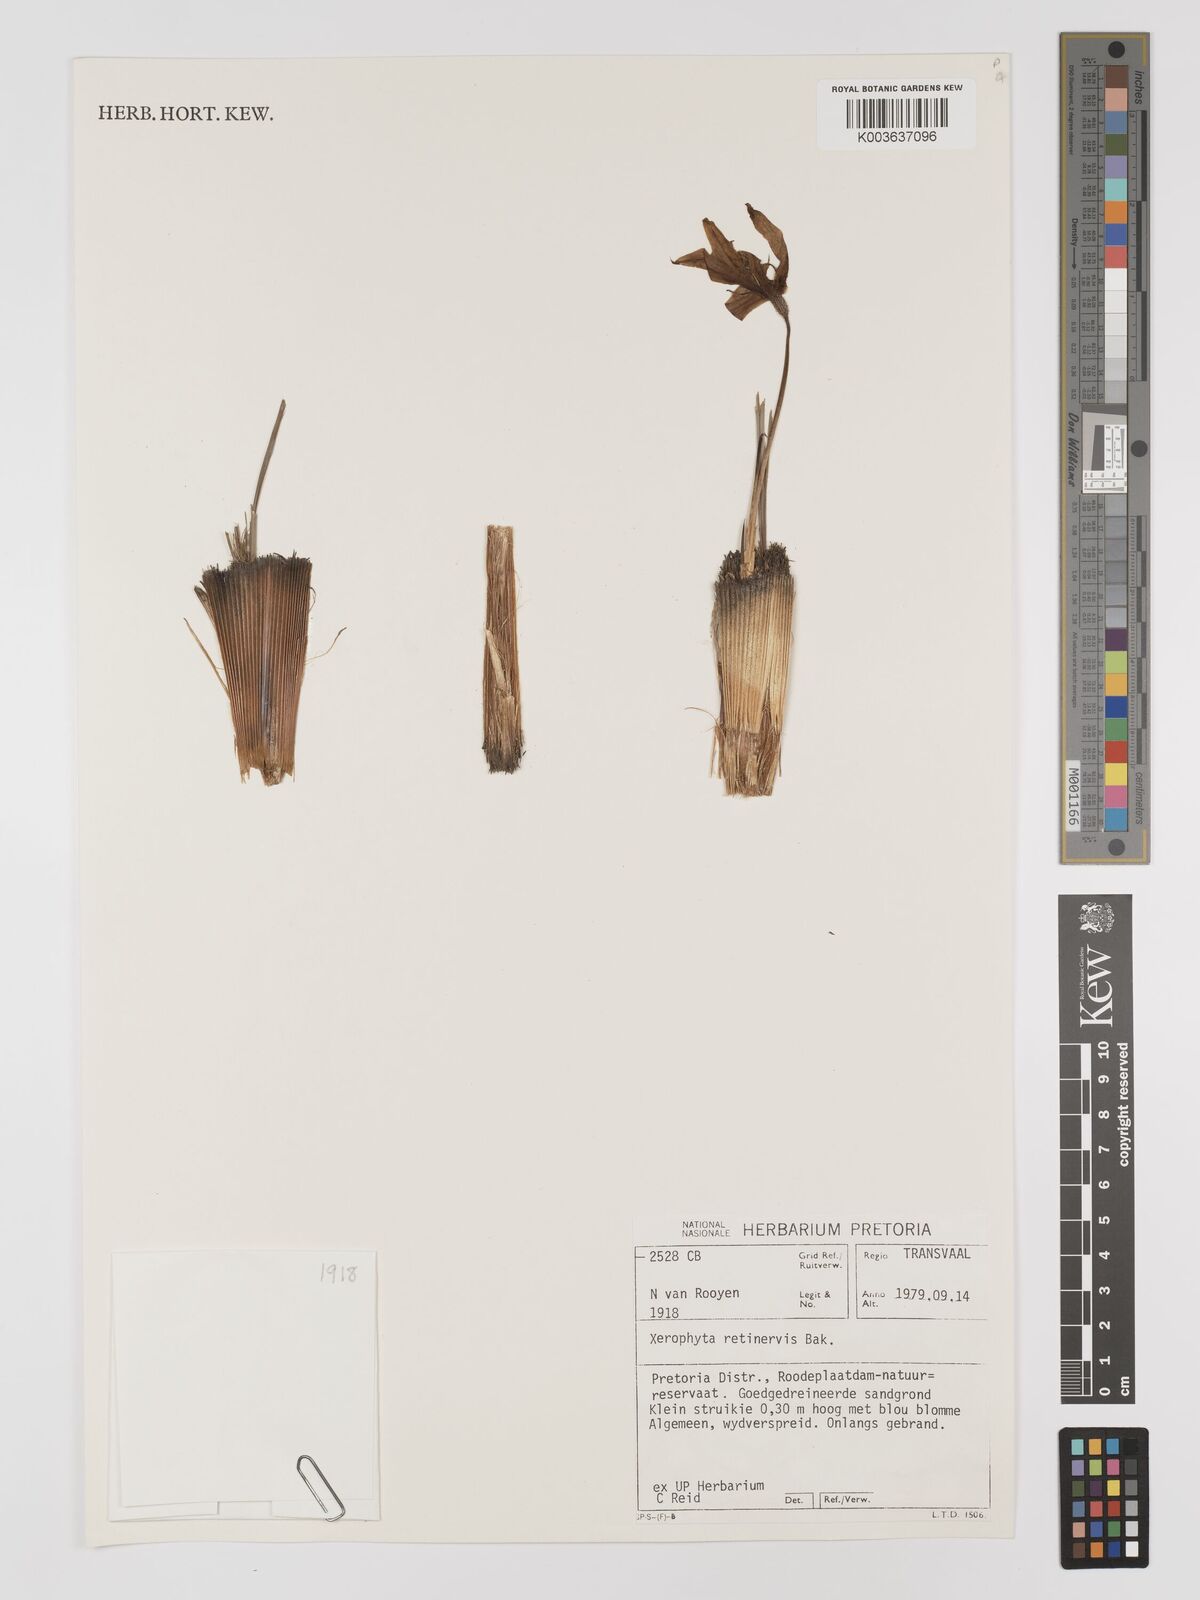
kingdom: Plantae
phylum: Tracheophyta
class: Liliopsida
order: Pandanales
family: Velloziaceae
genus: Xerophyta
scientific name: Xerophyta retinervis
